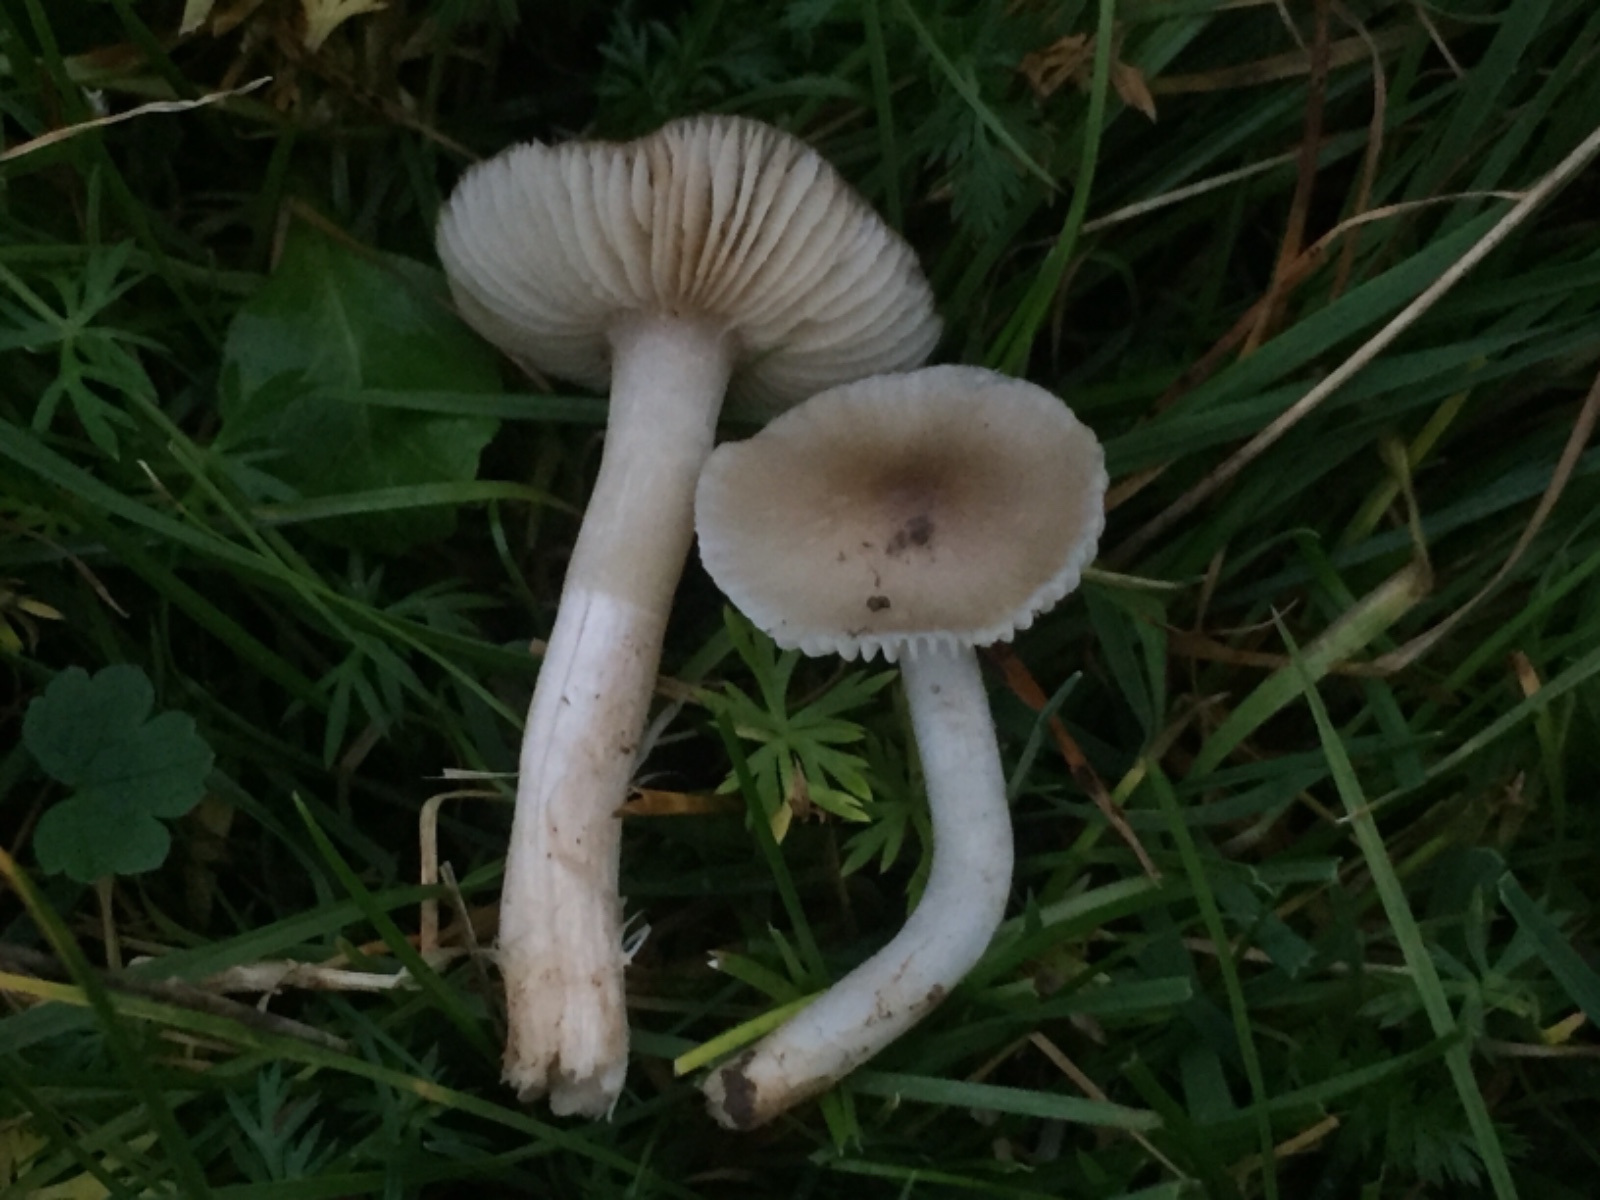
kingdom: Fungi
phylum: Basidiomycota
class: Agaricomycetes
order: Agaricales
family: Hygrophoraceae
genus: Cuphophyllus
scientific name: Cuphophyllus fornicatus
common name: gråbrun vokshat
